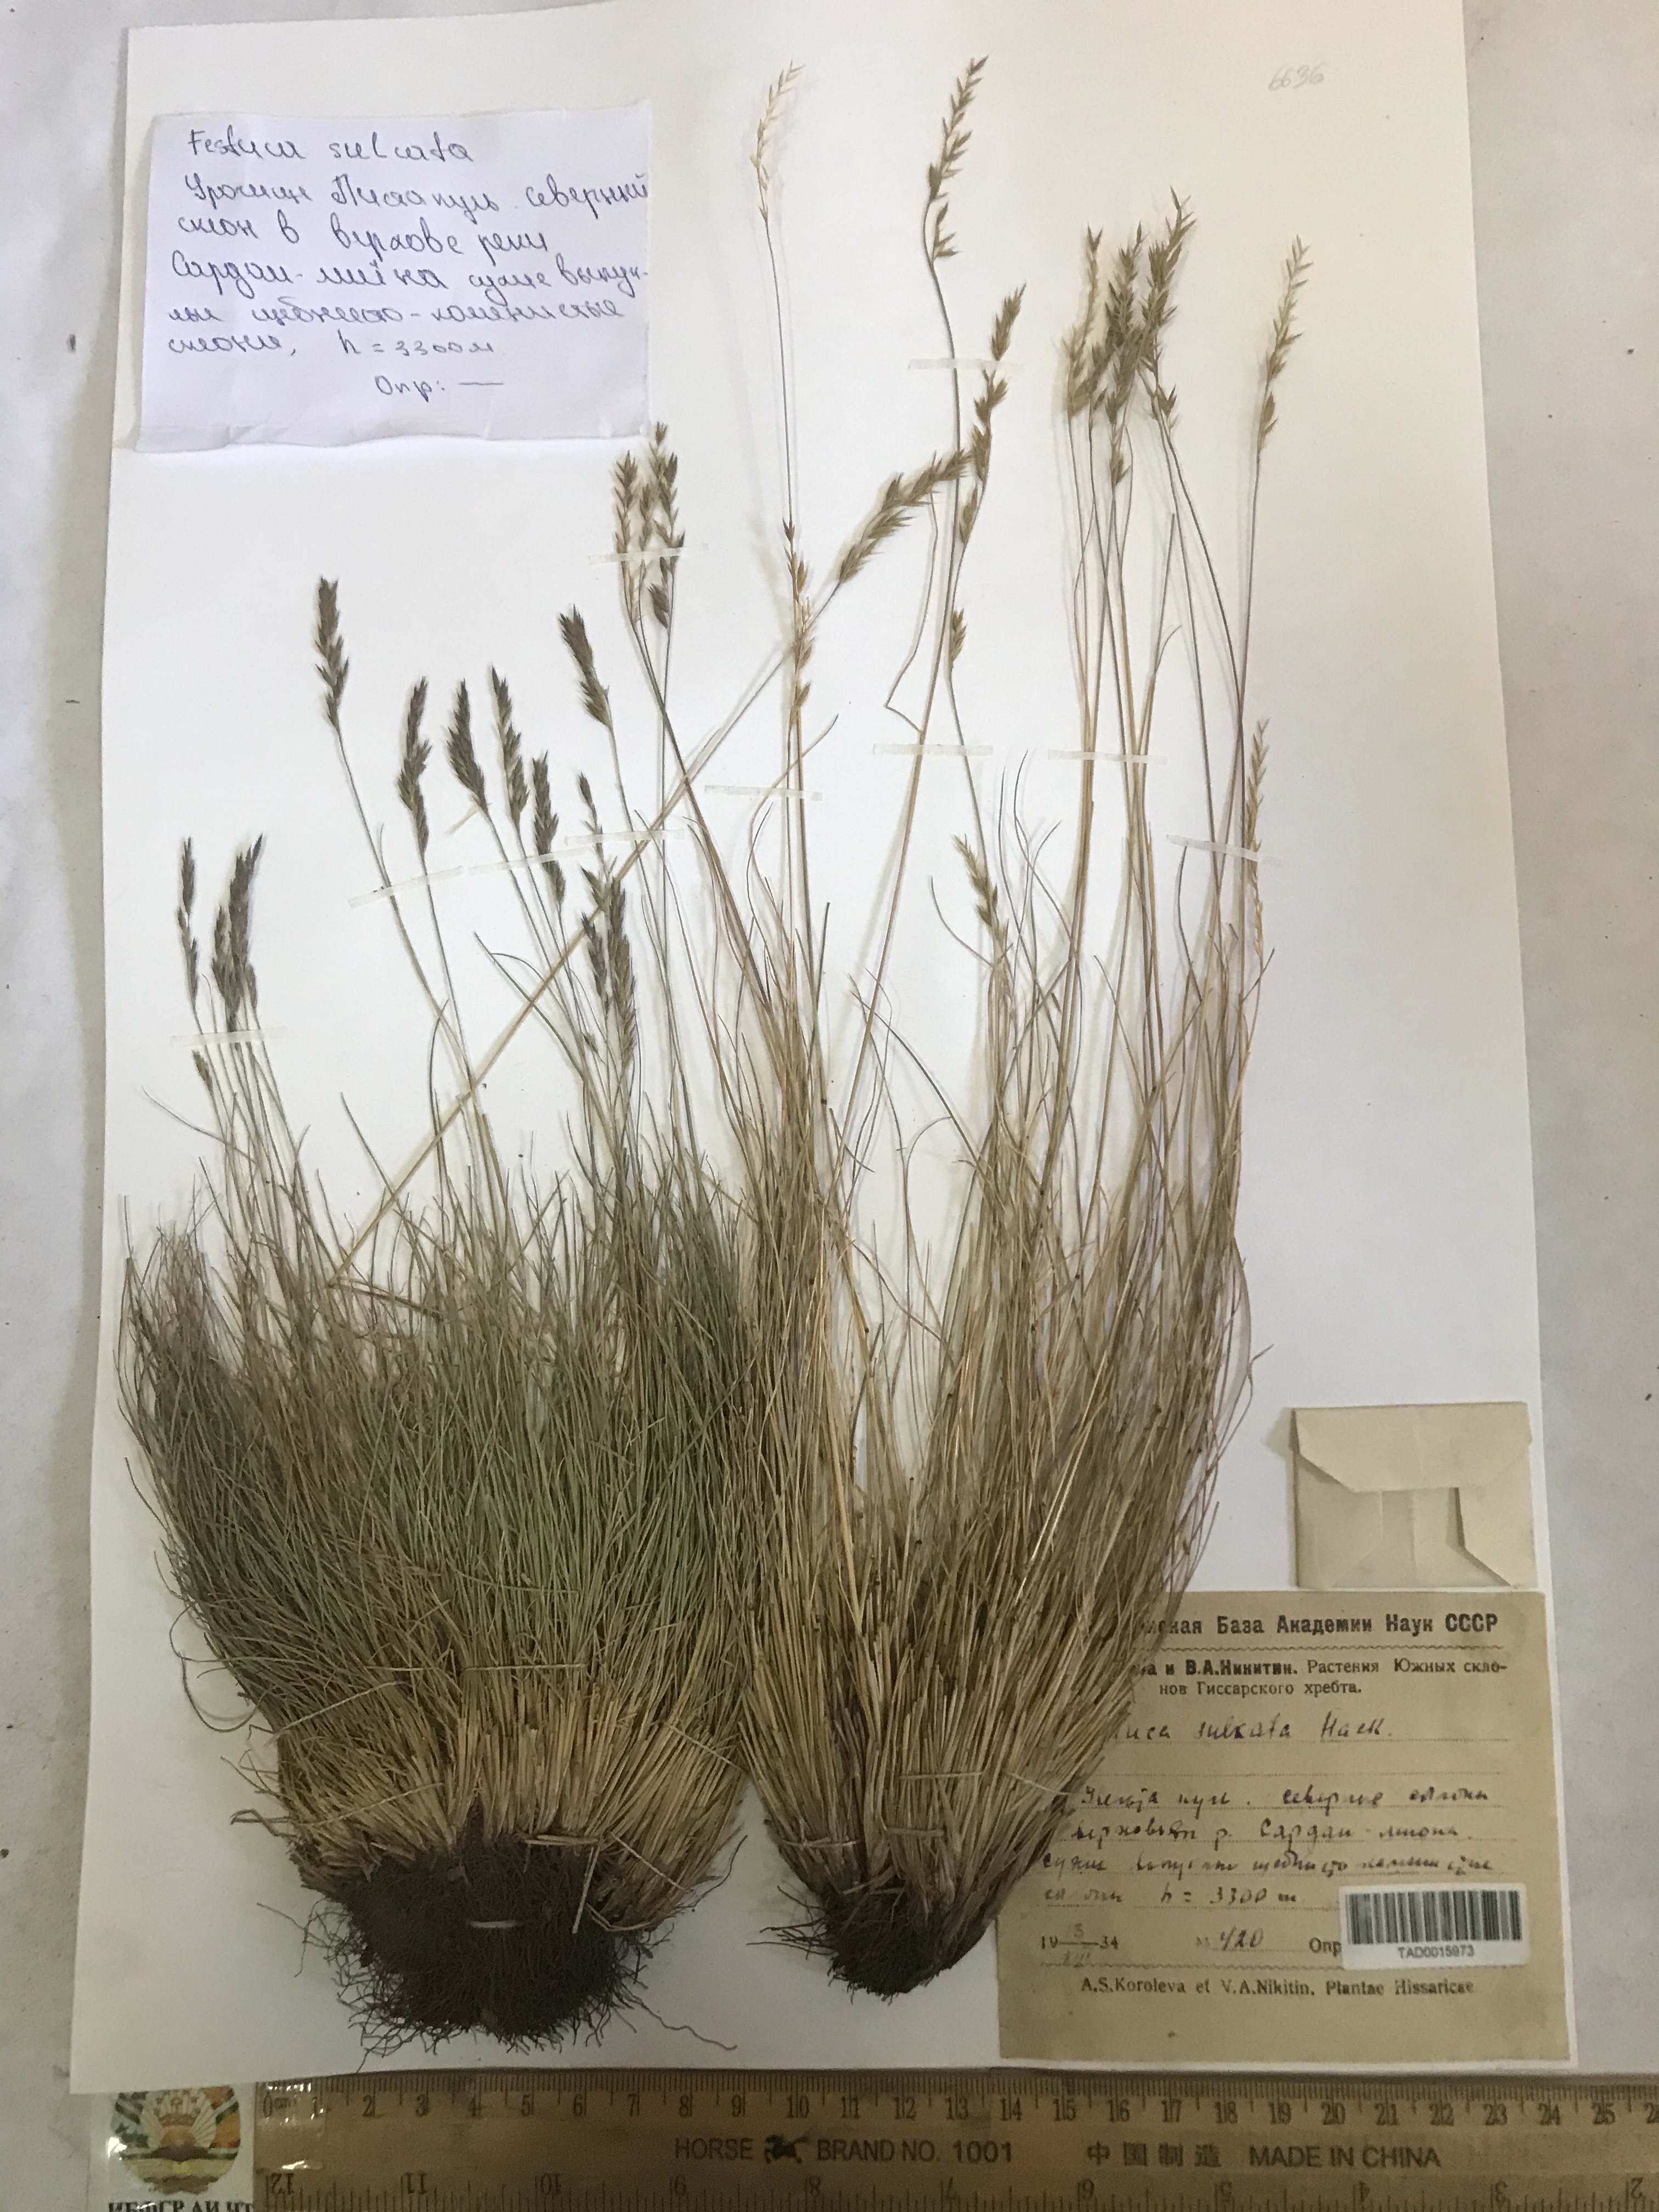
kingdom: Plantae
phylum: Tracheophyta
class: Liliopsida
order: Poales
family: Poaceae
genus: Festuca
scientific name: Festuca sulcata
